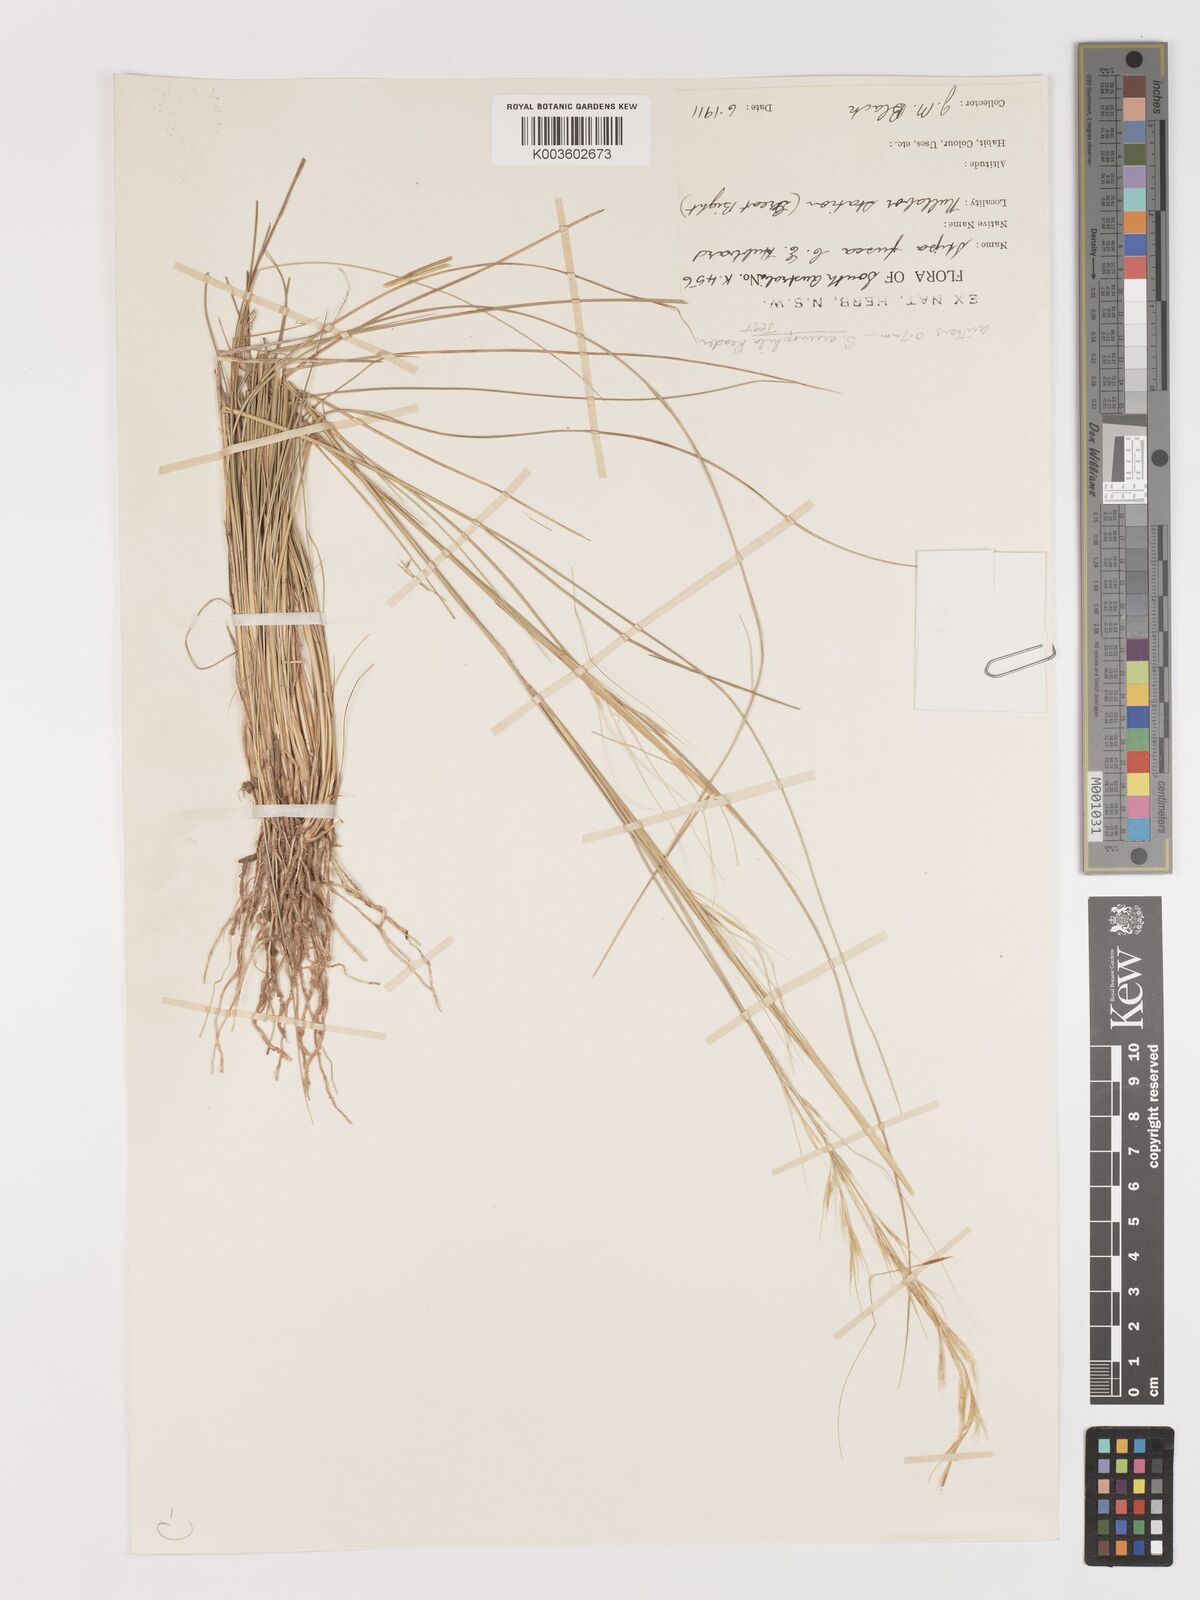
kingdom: Plantae
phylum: Tracheophyta
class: Liliopsida
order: Poales
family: Poaceae
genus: Austrostipa
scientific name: Austrostipa eremophila
